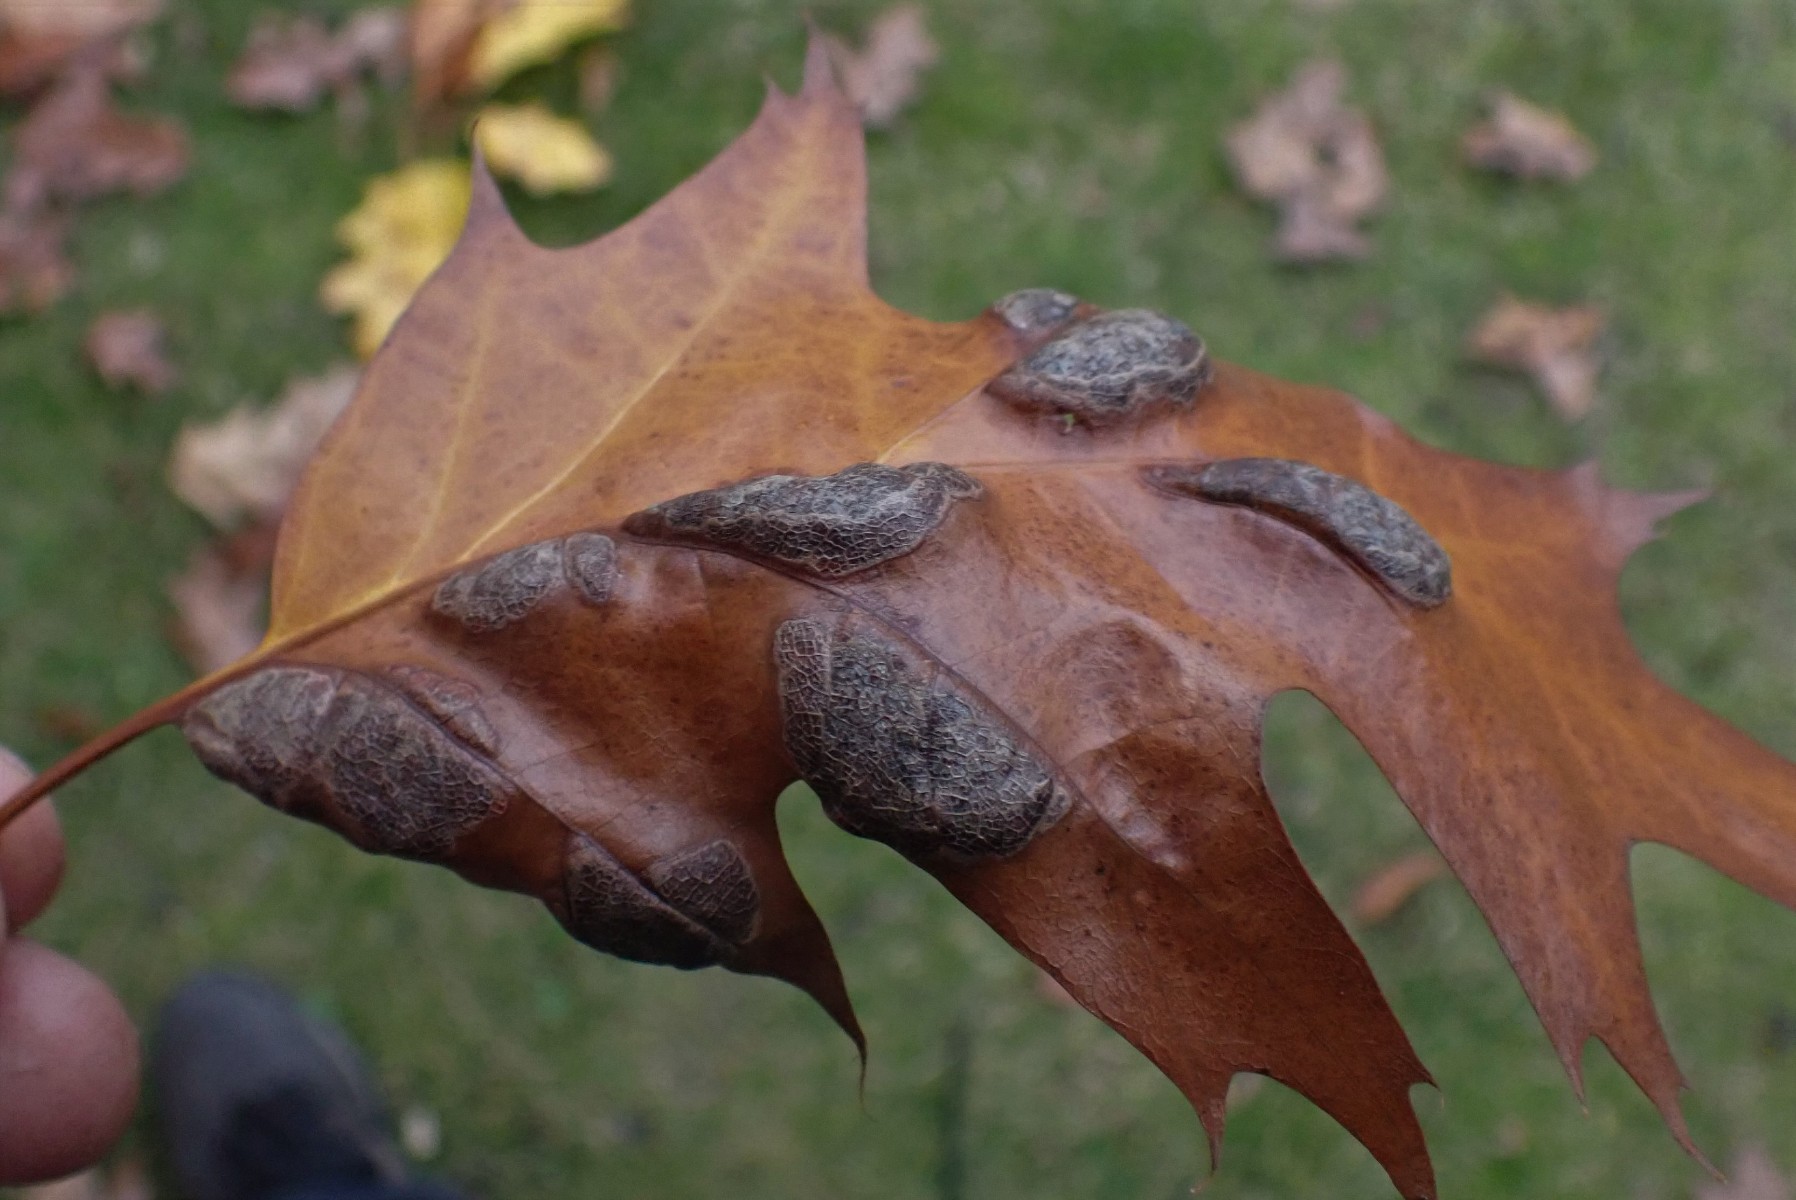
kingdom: Fungi
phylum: Ascomycota
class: Taphrinomycetes
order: Taphrinales
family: Taphrinaceae
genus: Taphrina
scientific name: Taphrina caerulescens
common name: Oak leaf blister
